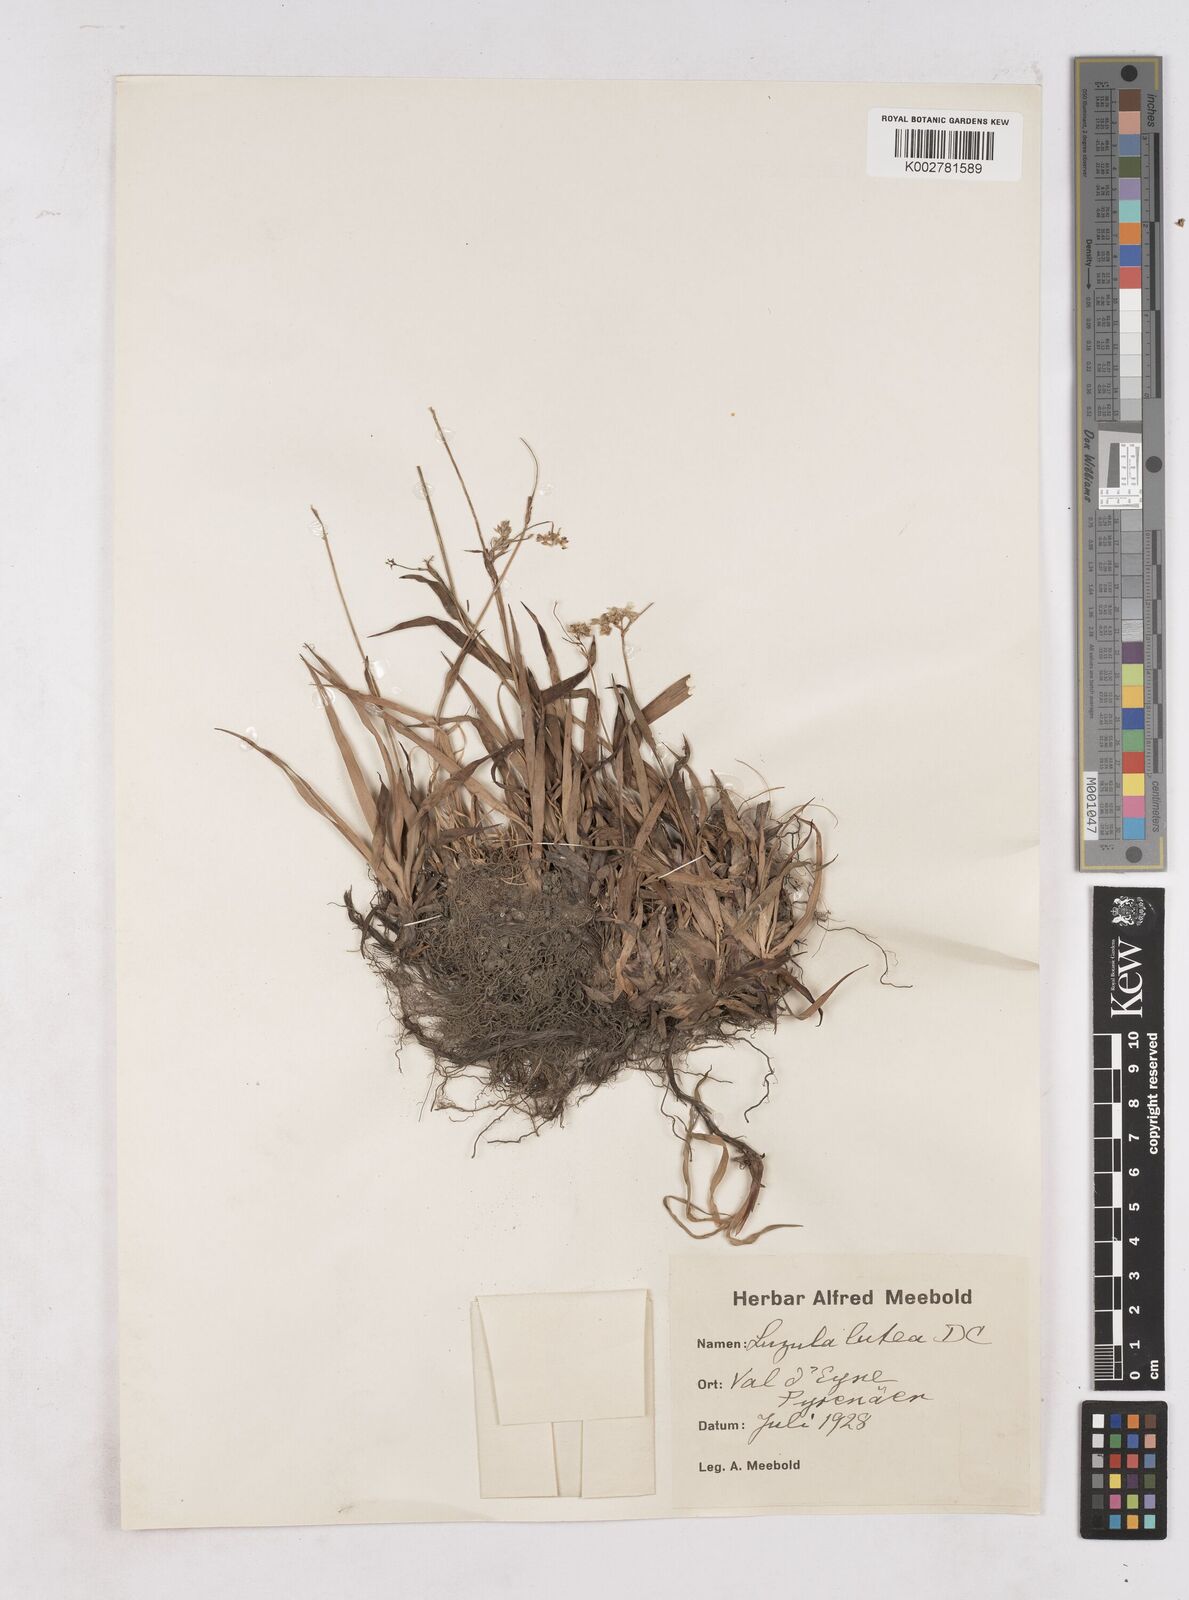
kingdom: Plantae
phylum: Tracheophyta
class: Liliopsida
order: Poales
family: Juncaceae
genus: Luzula
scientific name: Luzula lutea
